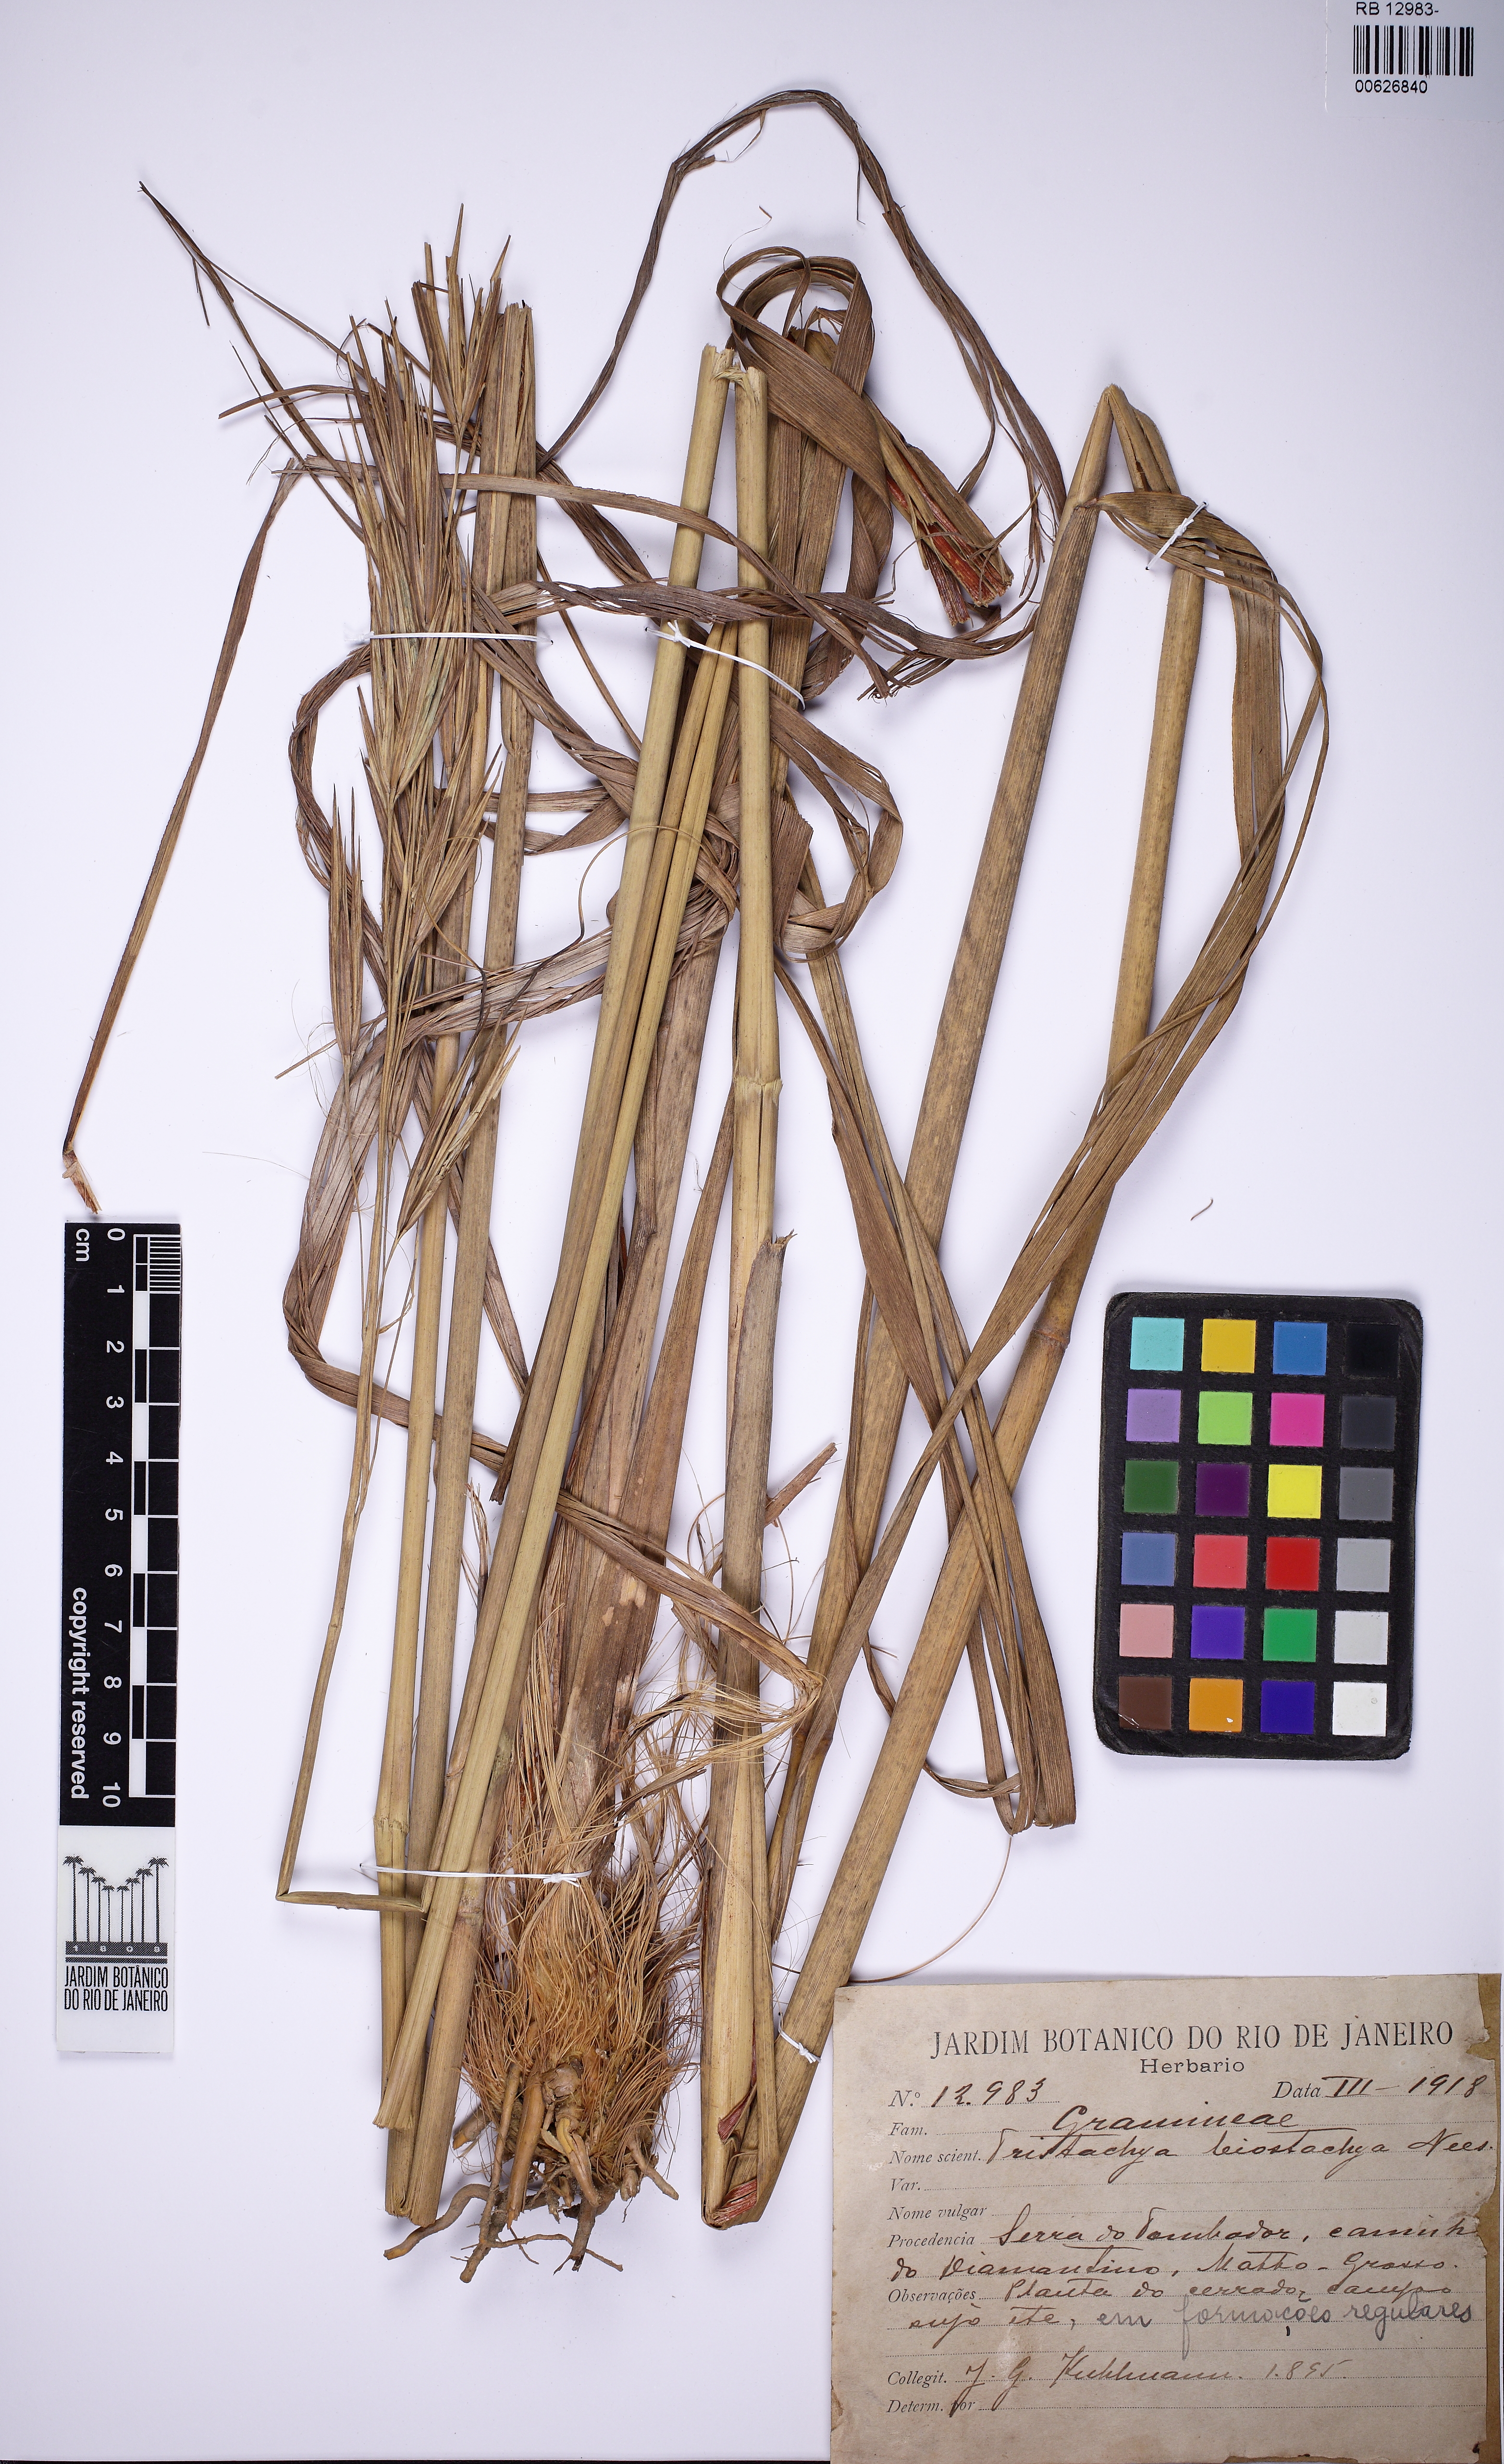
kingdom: Plantae
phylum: Tracheophyta
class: Liliopsida
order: Poales
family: Poaceae
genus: Tristachya
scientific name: Tristachya leiostachya
